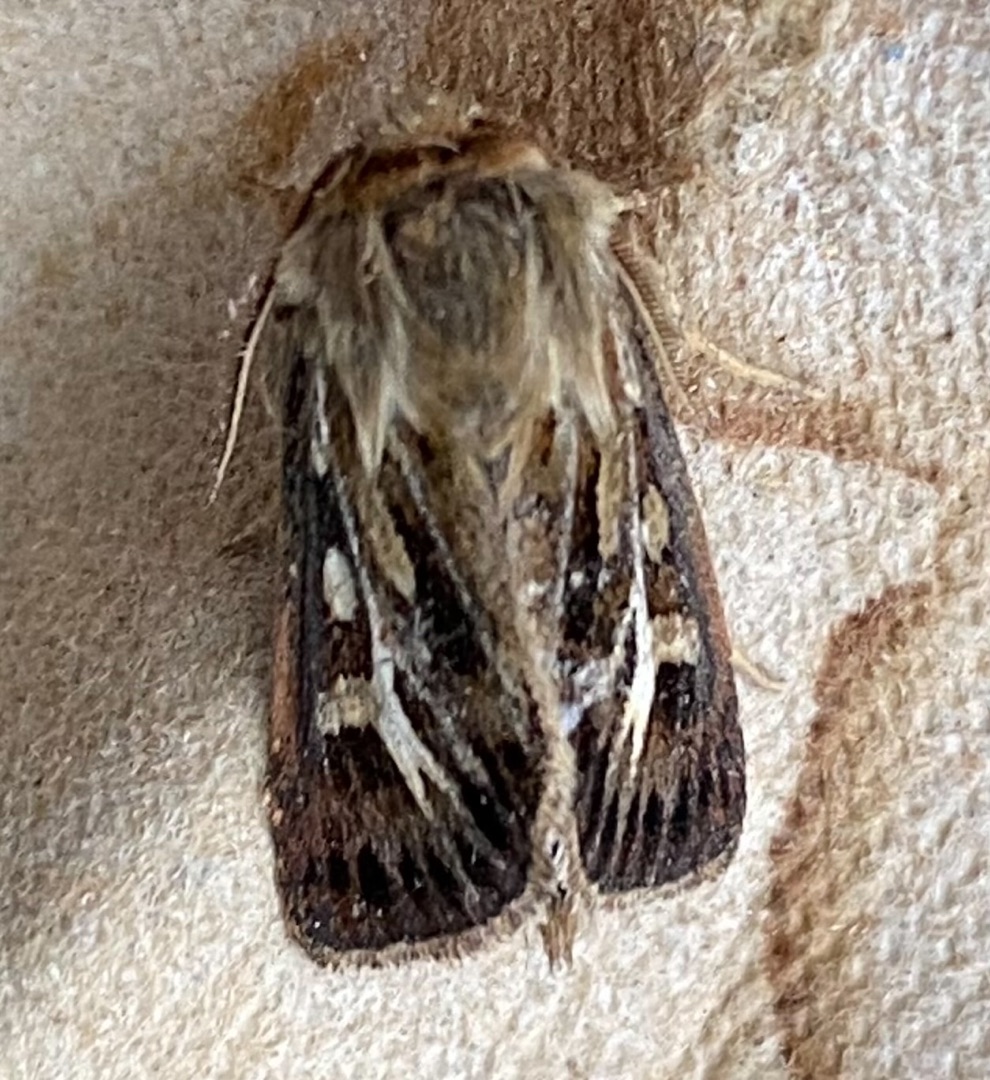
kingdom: Animalia
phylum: Arthropoda
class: Insecta
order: Lepidoptera
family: Noctuidae
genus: Cerapteryx
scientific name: Cerapteryx graminis
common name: Mosebunkeugle
